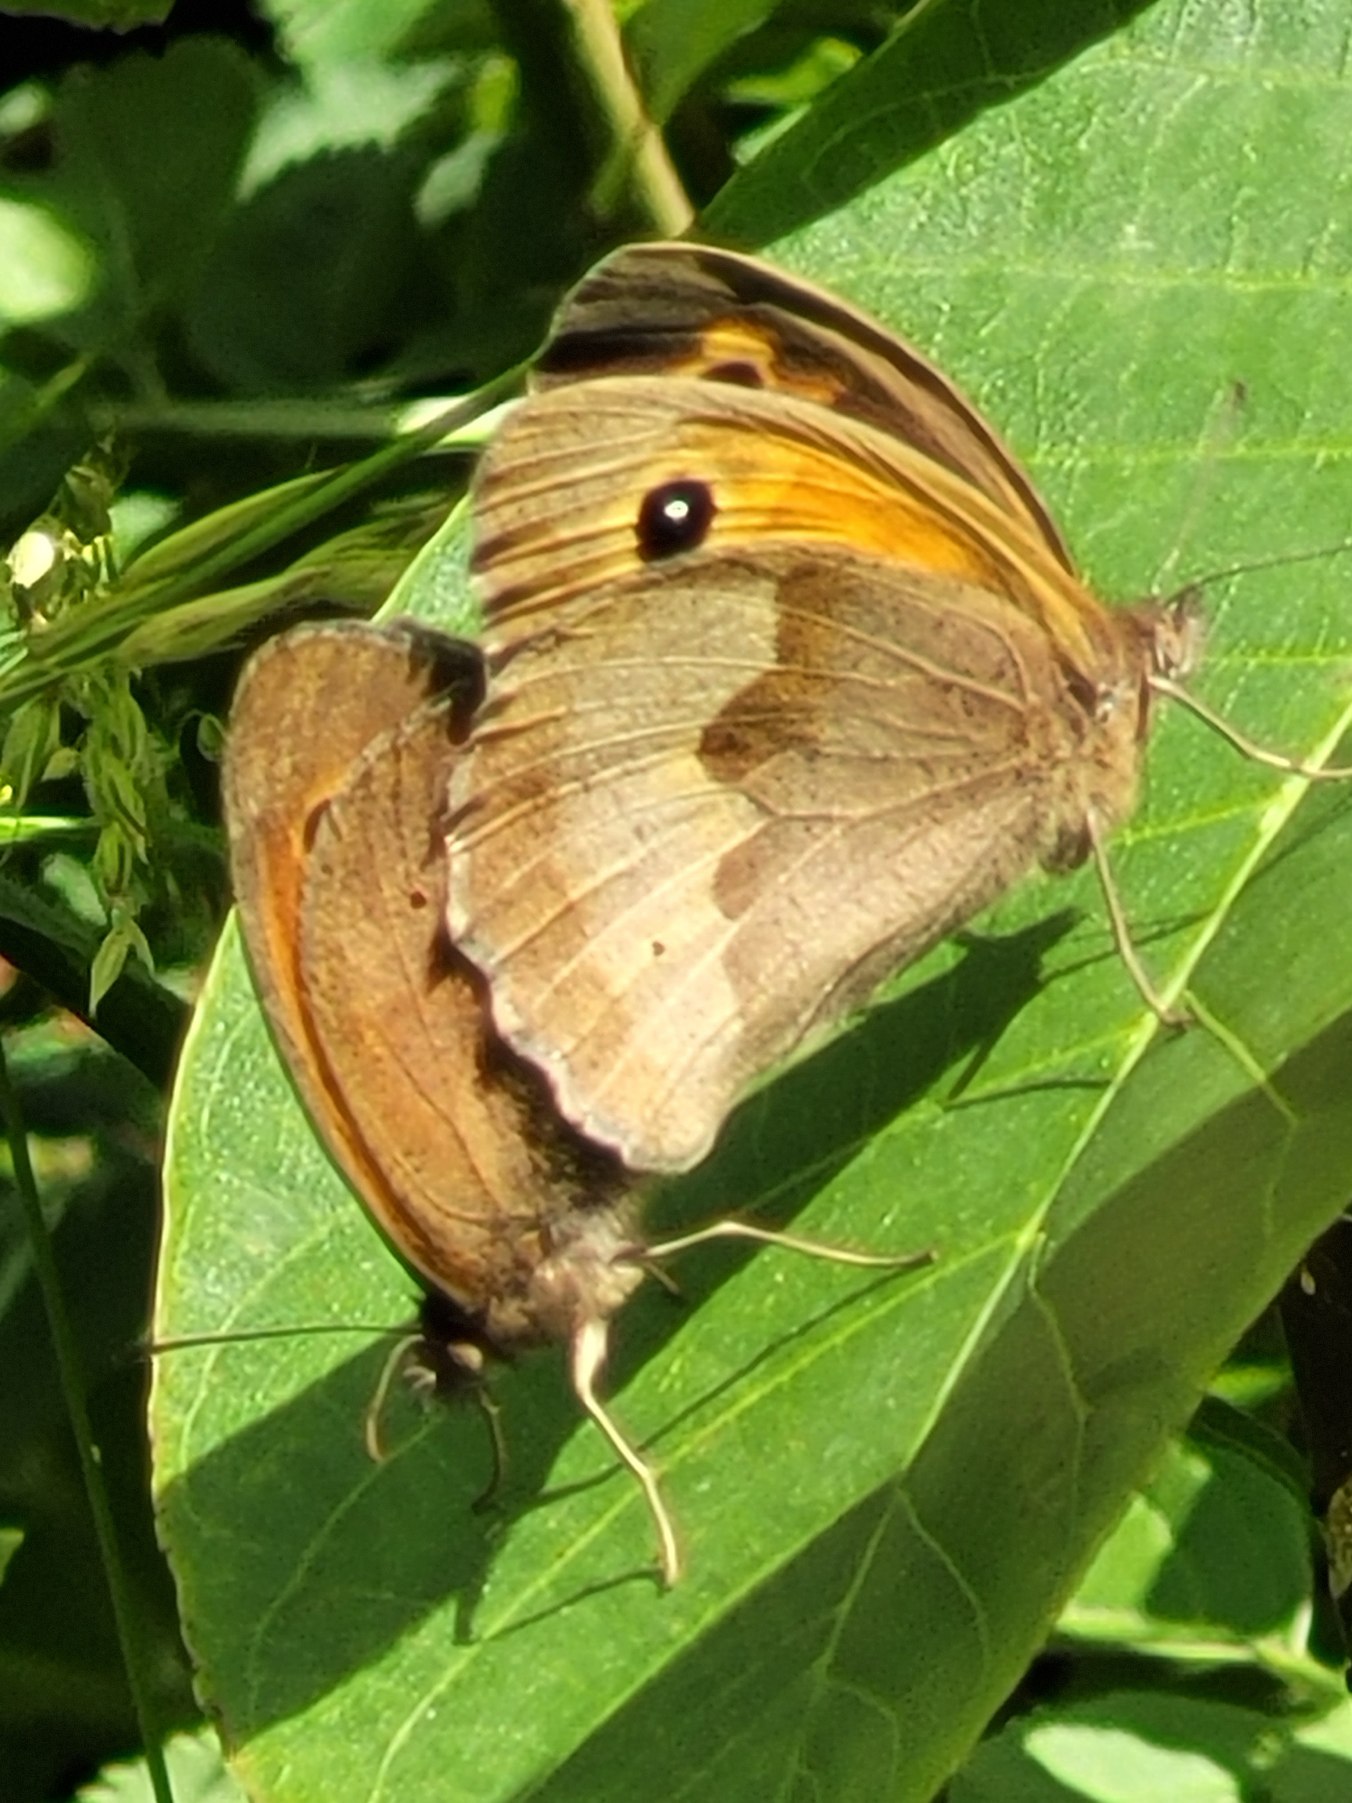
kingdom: Animalia
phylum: Arthropoda
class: Insecta
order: Lepidoptera
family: Nymphalidae
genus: Maniola
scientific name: Maniola jurtina
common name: Græsrandøje
